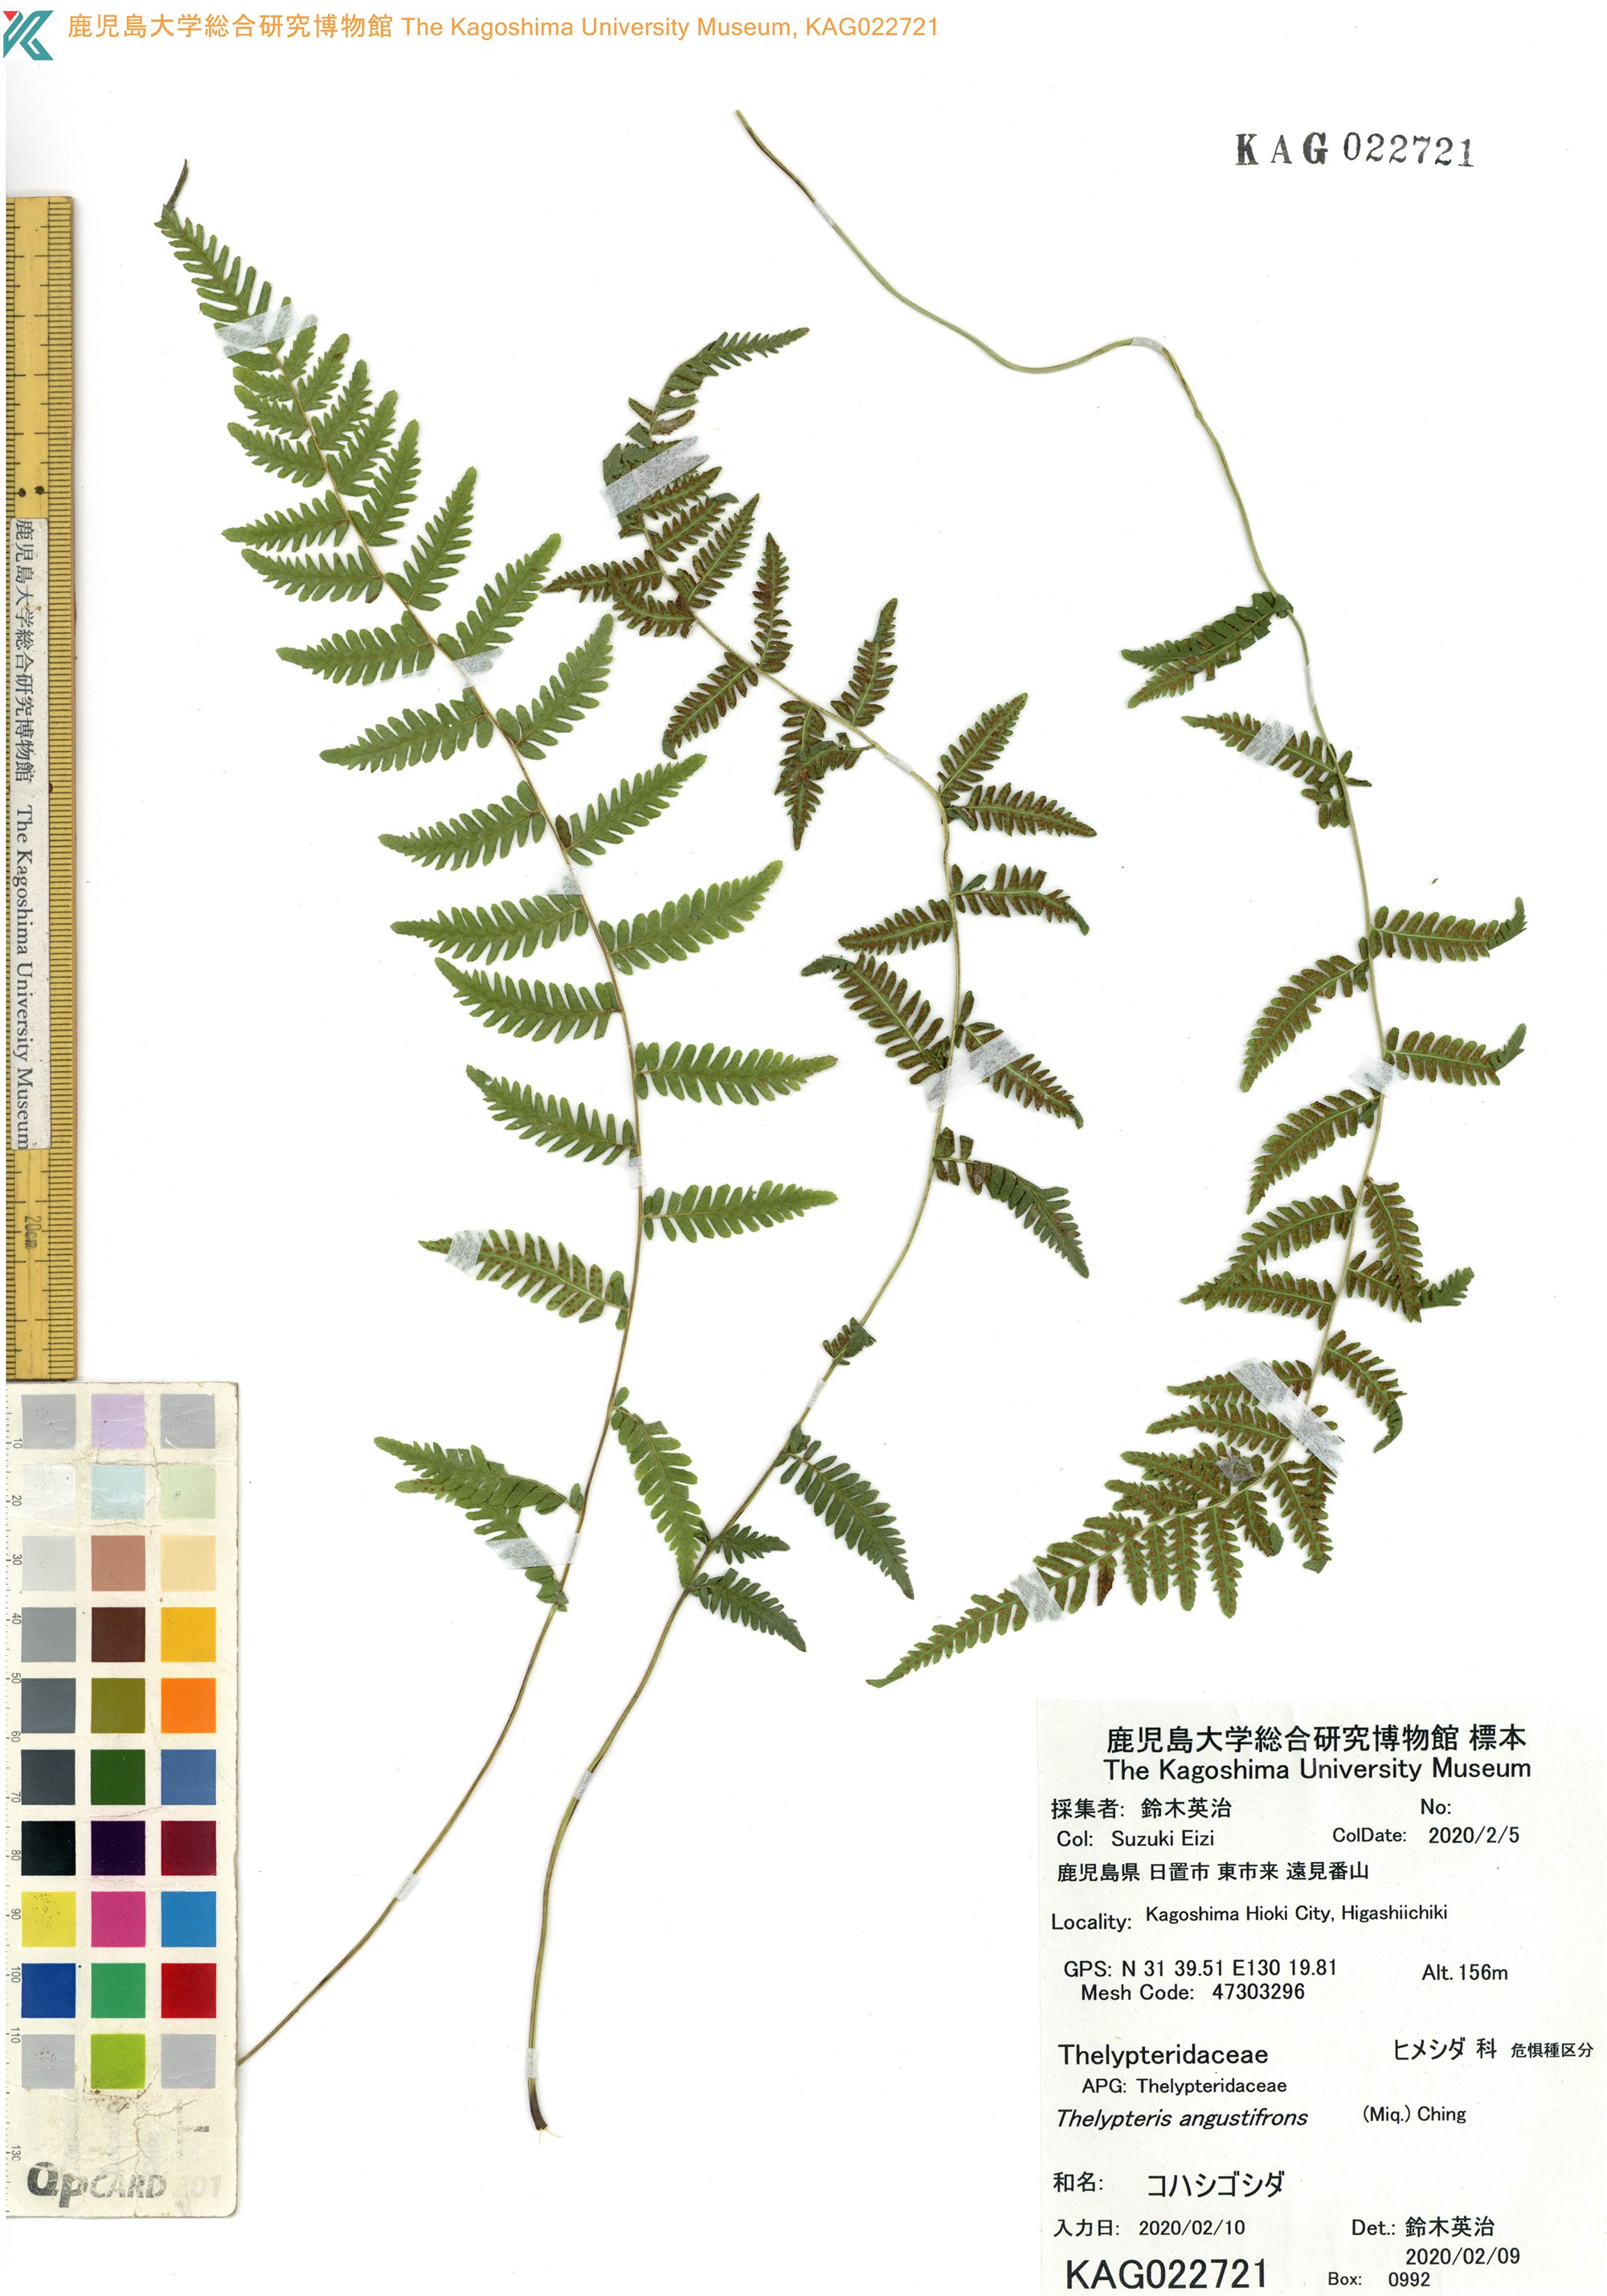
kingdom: Plantae
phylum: Tracheophyta
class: Polypodiopsida
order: Polypodiales
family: Thelypteridaceae
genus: Amauropelta
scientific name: Amauropelta angustifrons
